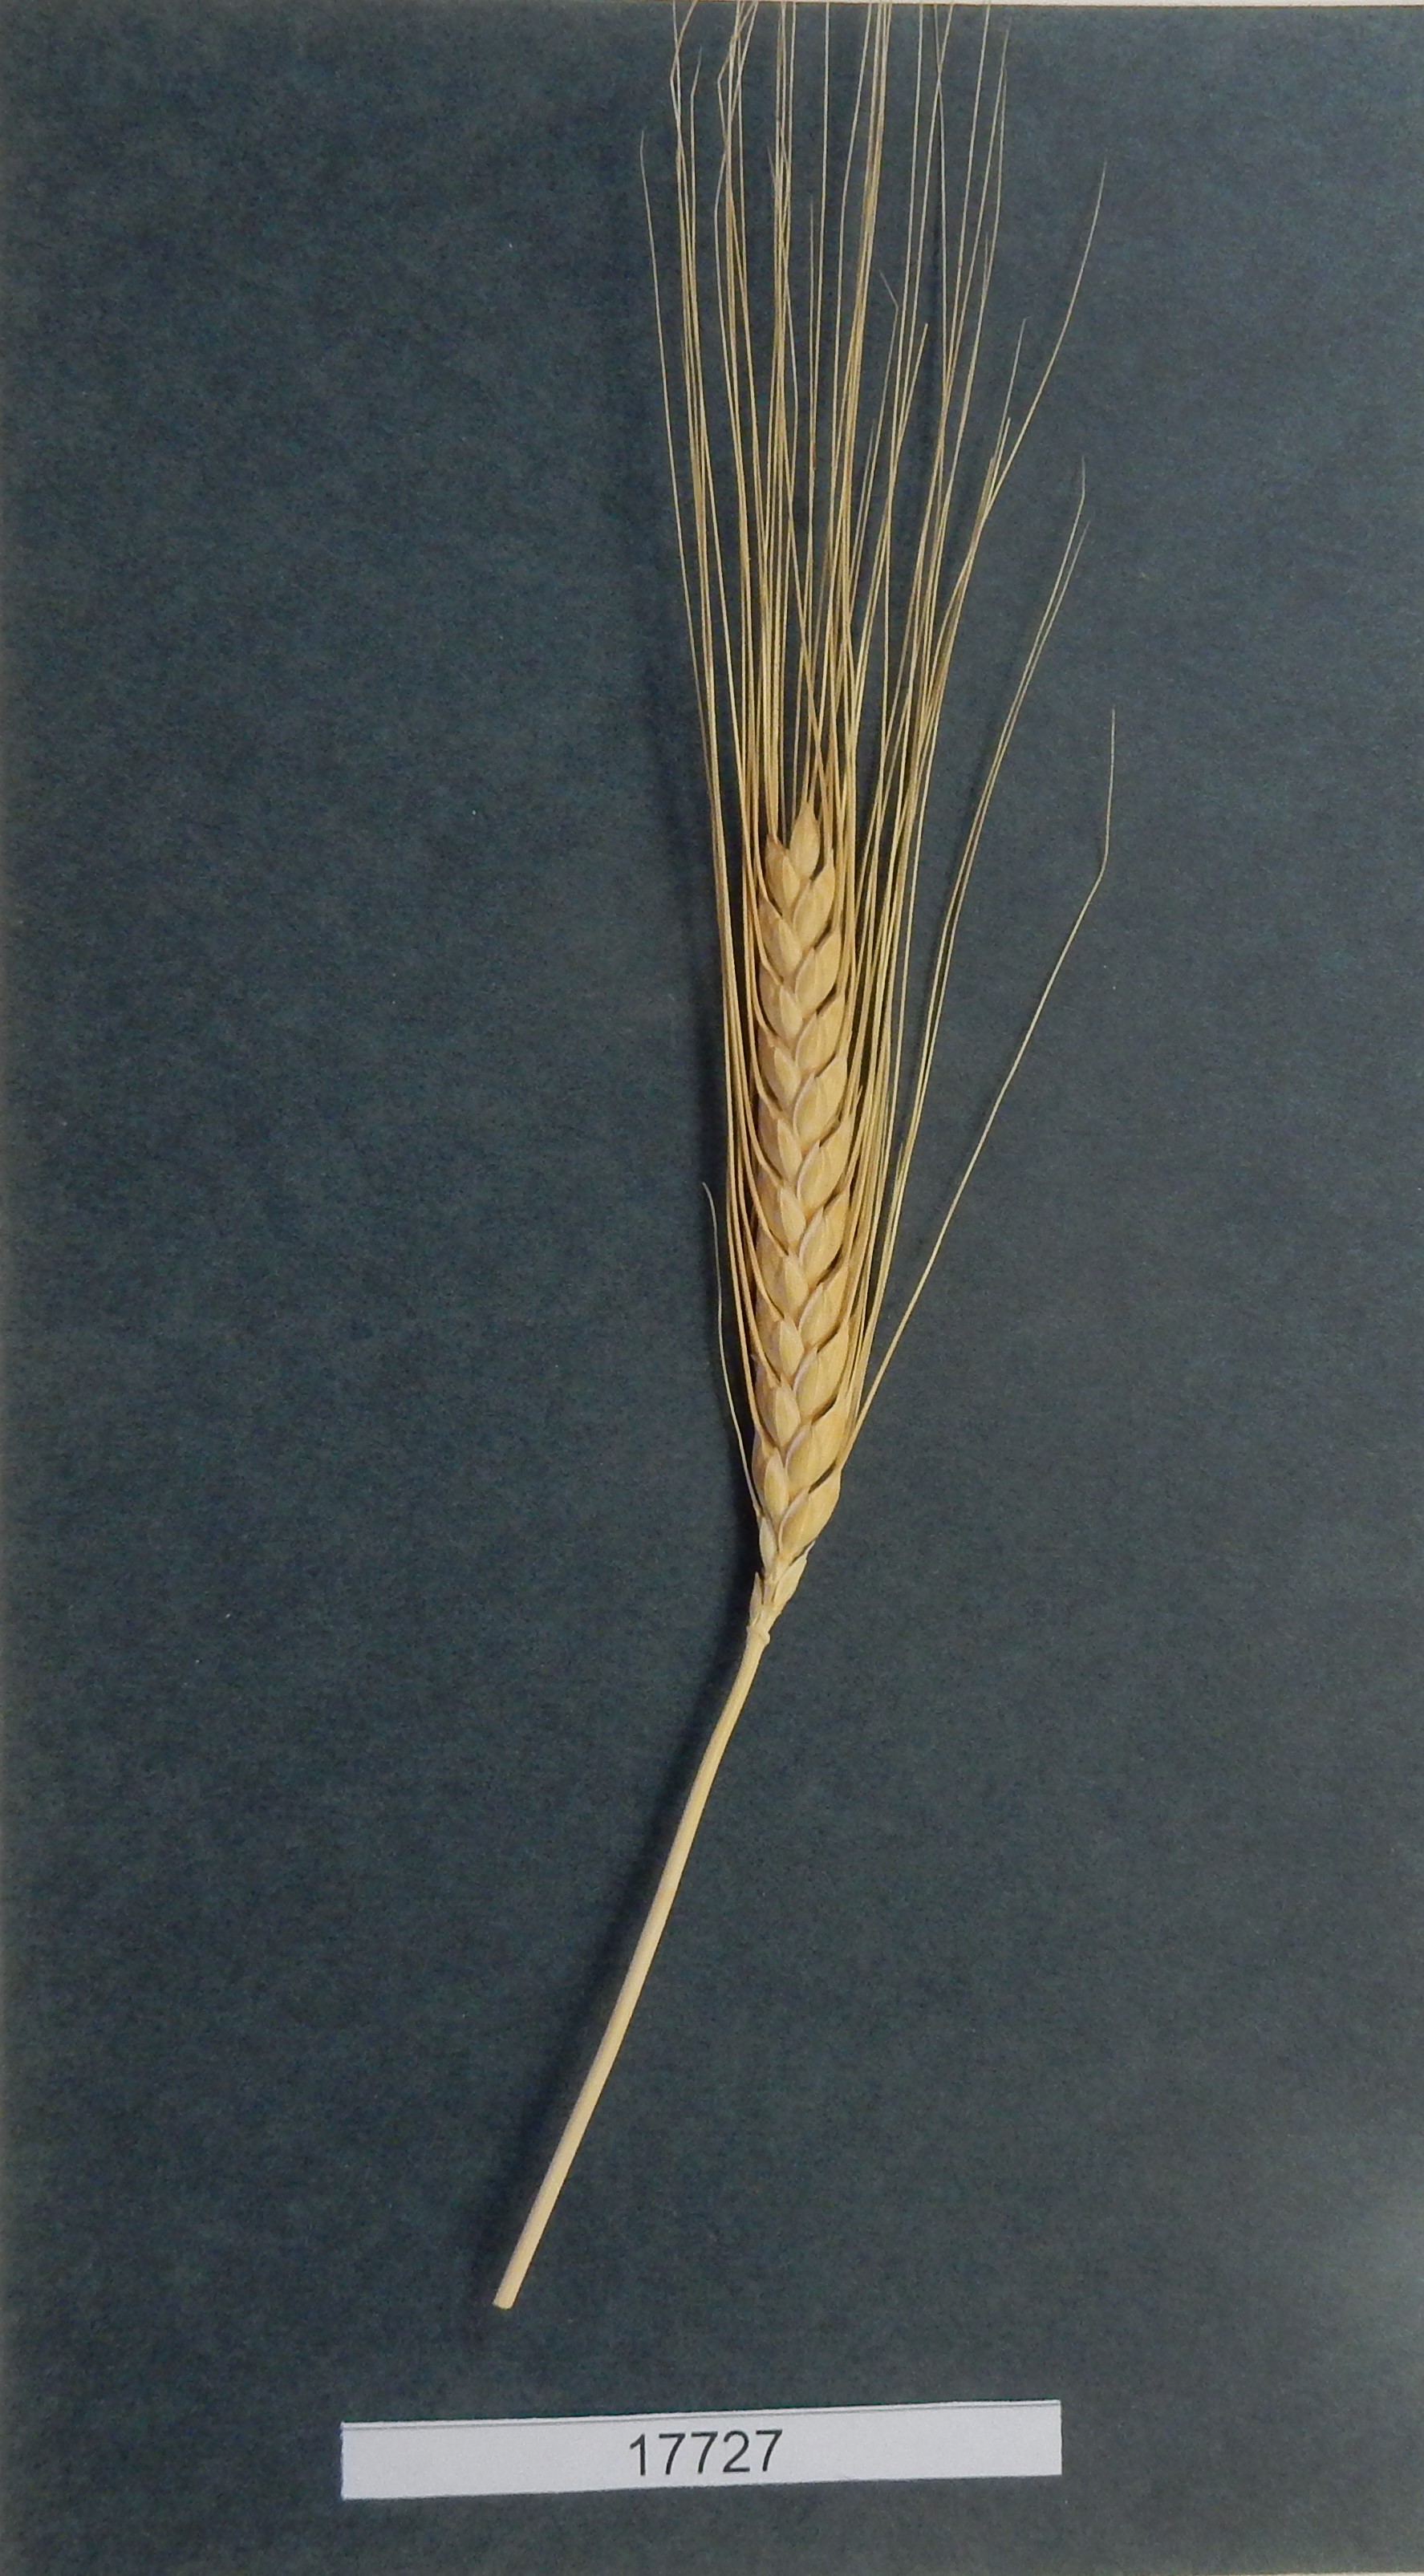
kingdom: Plantae
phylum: Tracheophyta
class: Liliopsida
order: Poales
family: Poaceae
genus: Triticum
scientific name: Triticum turgidum
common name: Wheat
